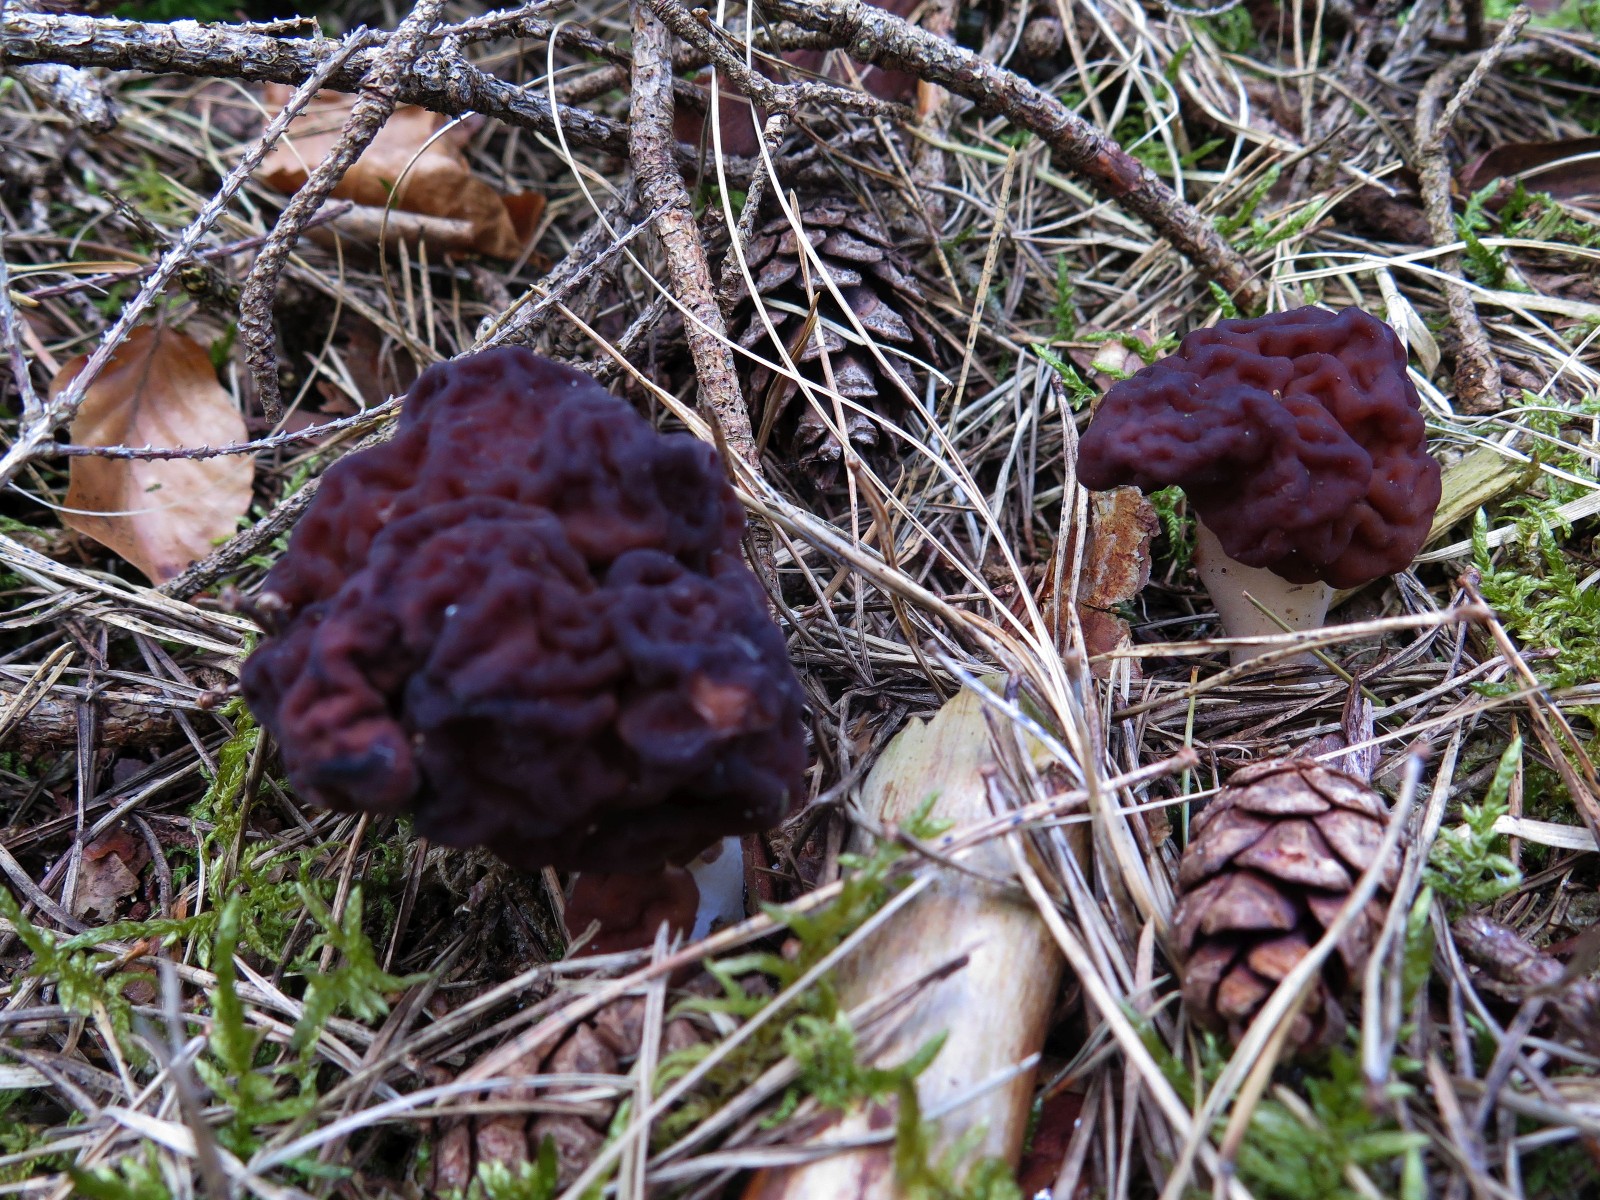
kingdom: Fungi
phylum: Ascomycota
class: Pezizomycetes
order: Pezizales
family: Discinaceae
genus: Gyromitra
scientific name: Gyromitra esculenta
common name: ægte stenmorkel
